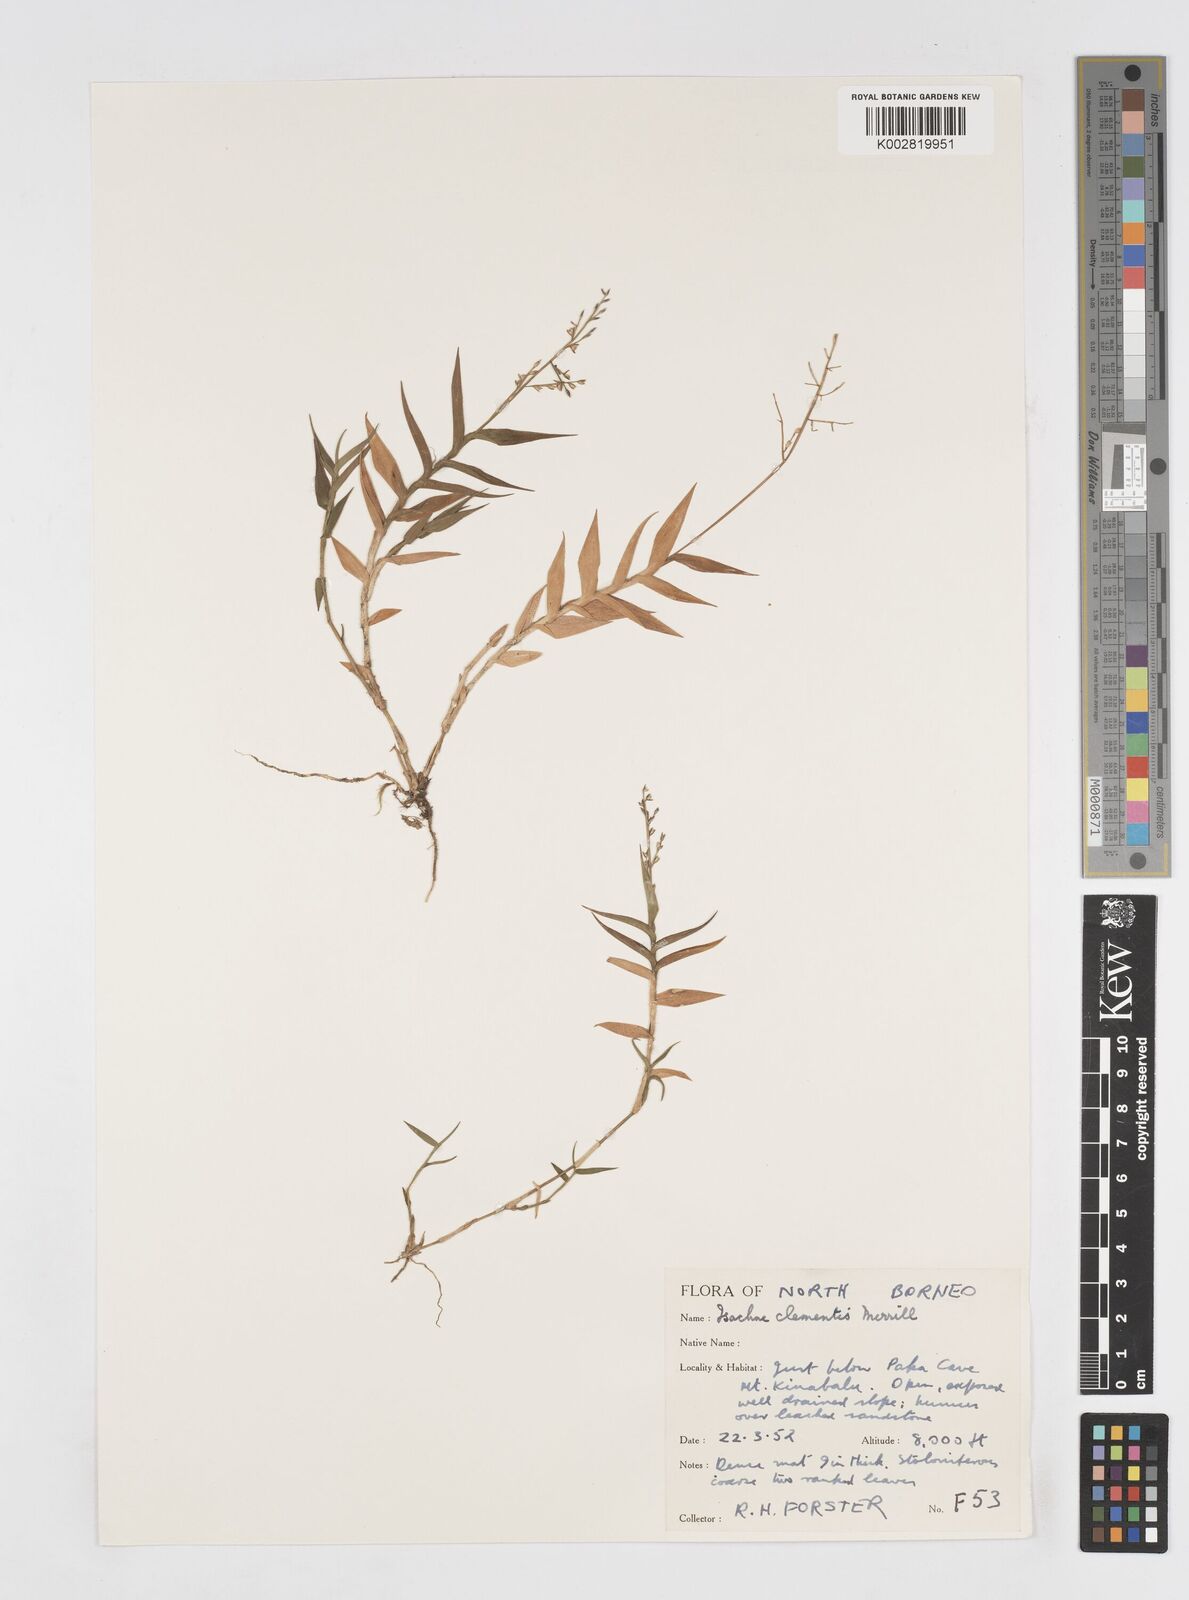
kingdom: Plantae
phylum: Tracheophyta
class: Liliopsida
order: Poales
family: Poaceae
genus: Isachne
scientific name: Isachne clementis
